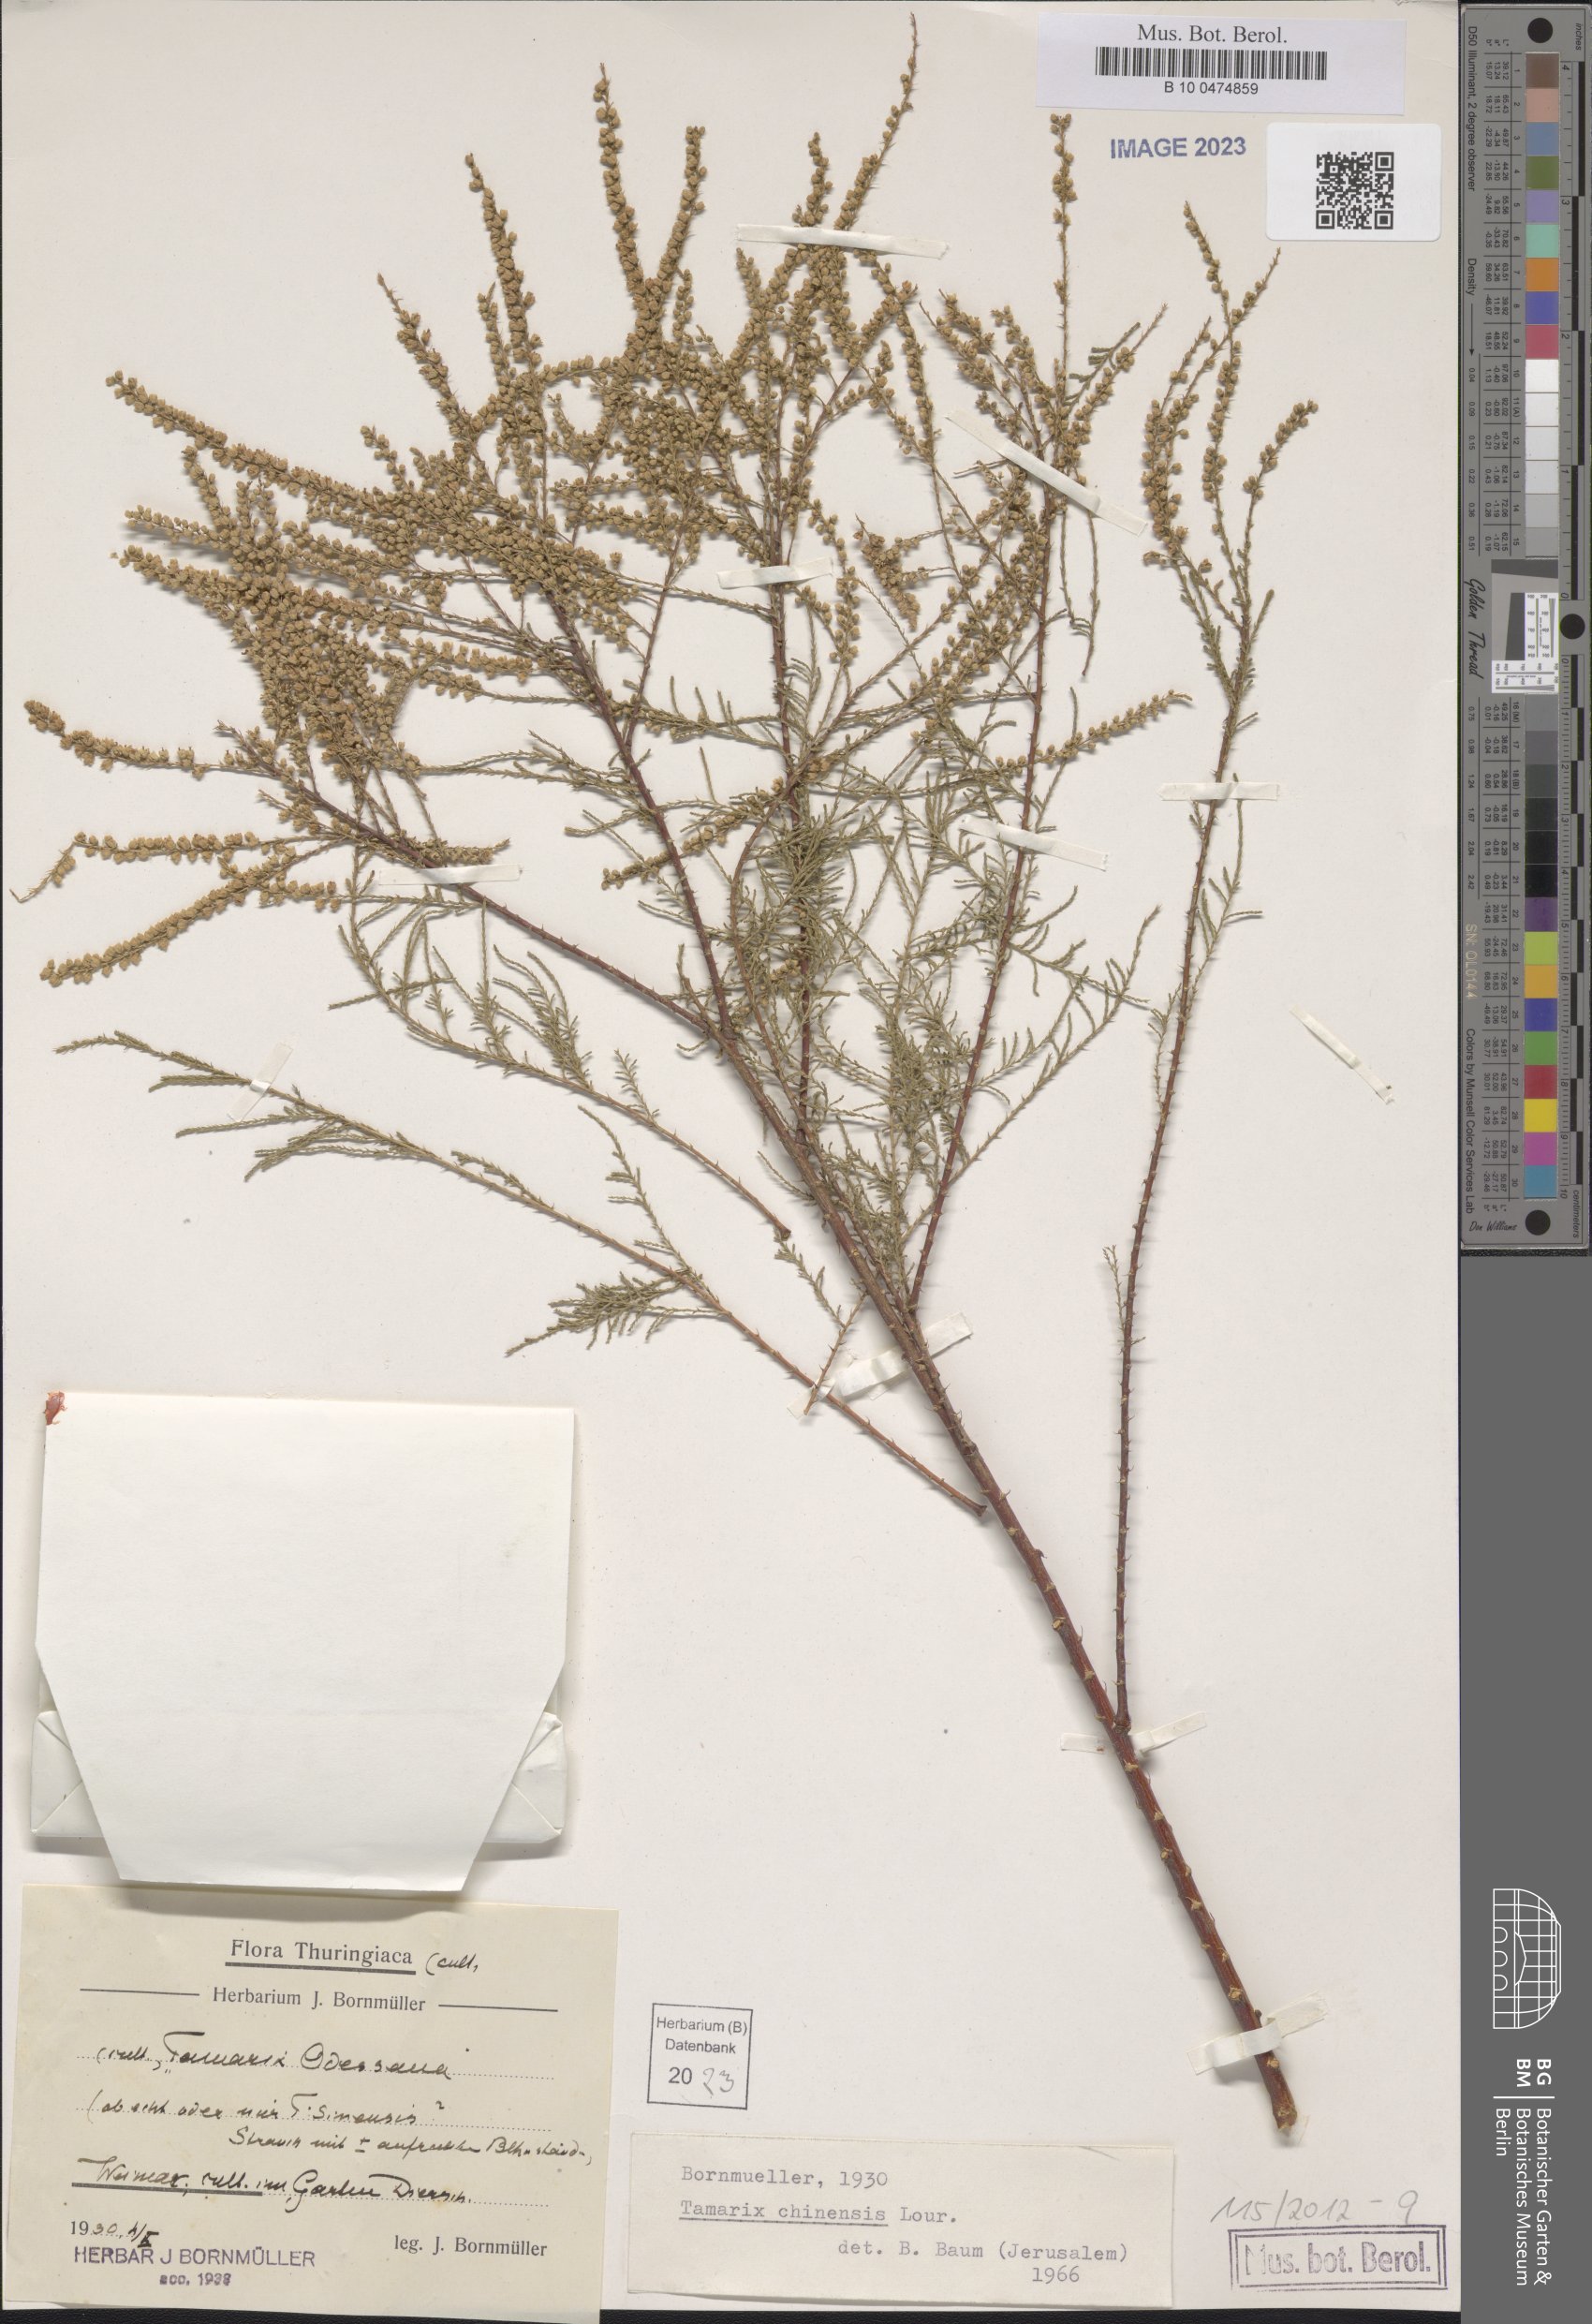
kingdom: Plantae
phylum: Tracheophyta
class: Magnoliopsida
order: Caryophyllales
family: Tamaricaceae
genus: Tamarix
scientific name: Tamarix chinensis
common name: Chinese tamarisk
